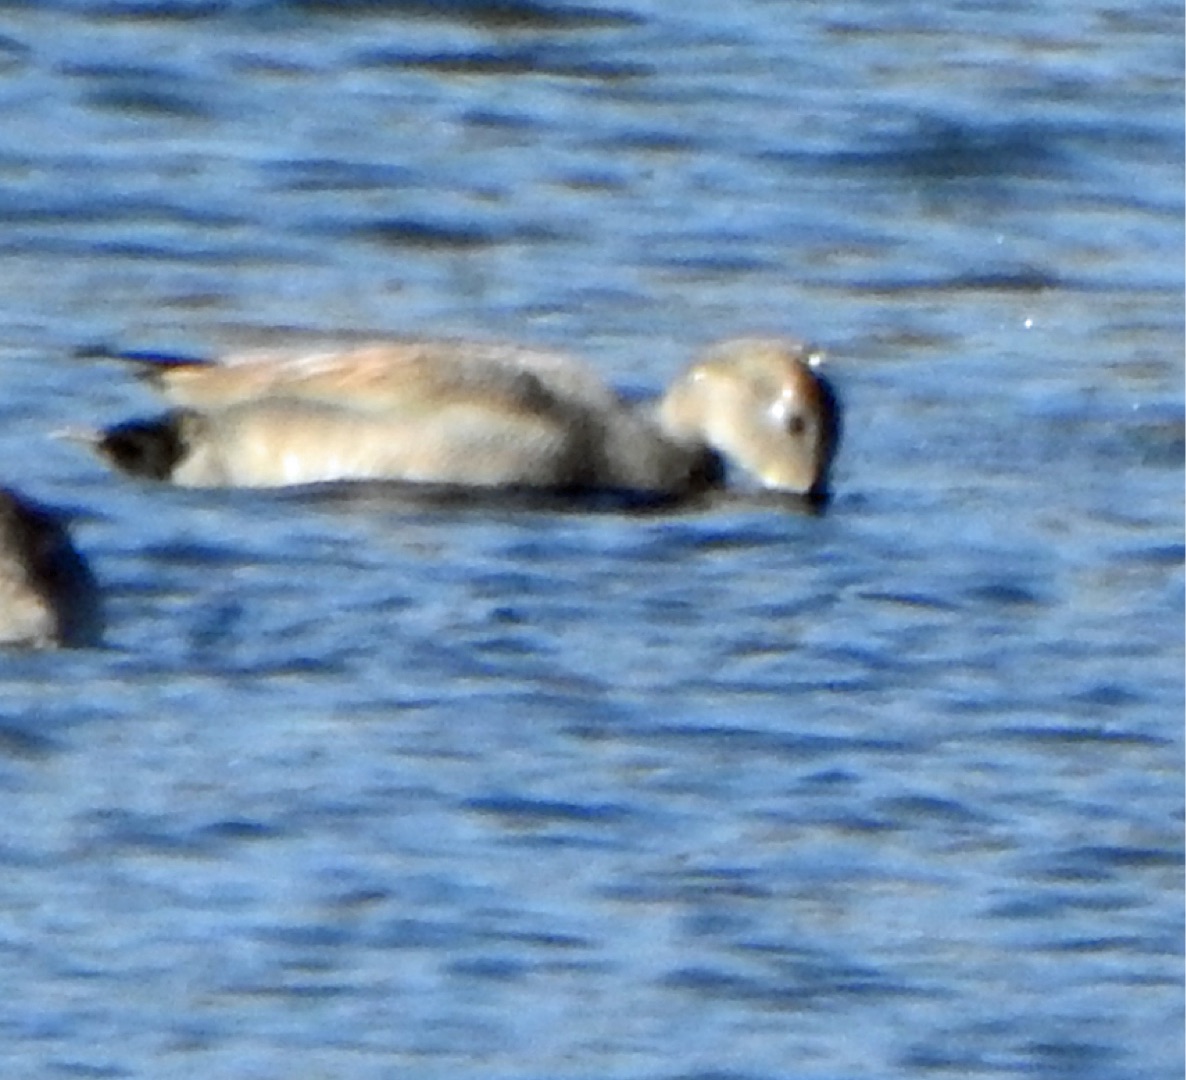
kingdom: Animalia
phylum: Chordata
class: Aves
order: Anseriformes
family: Anatidae
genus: Mareca
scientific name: Mareca strepera
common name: Knarand
